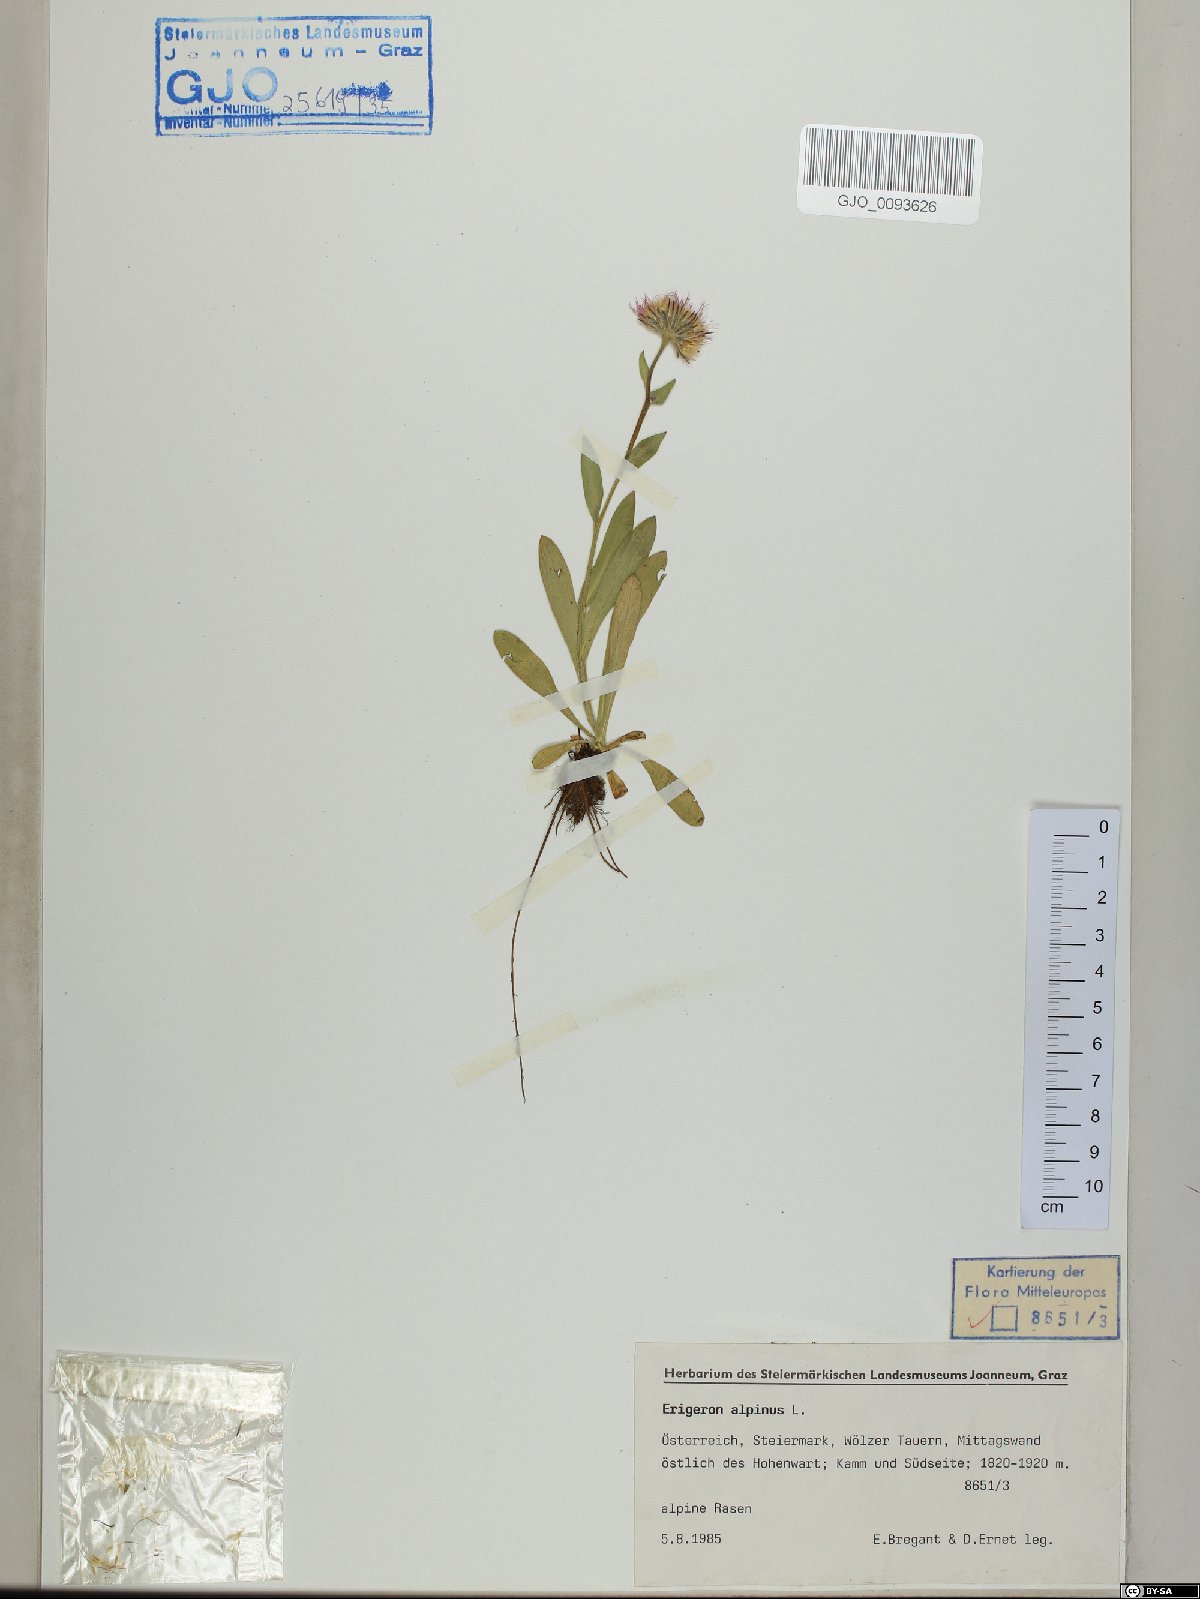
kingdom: Plantae
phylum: Tracheophyta
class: Magnoliopsida
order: Asterales
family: Asteraceae
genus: Erigeron
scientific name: Erigeron alpinus
